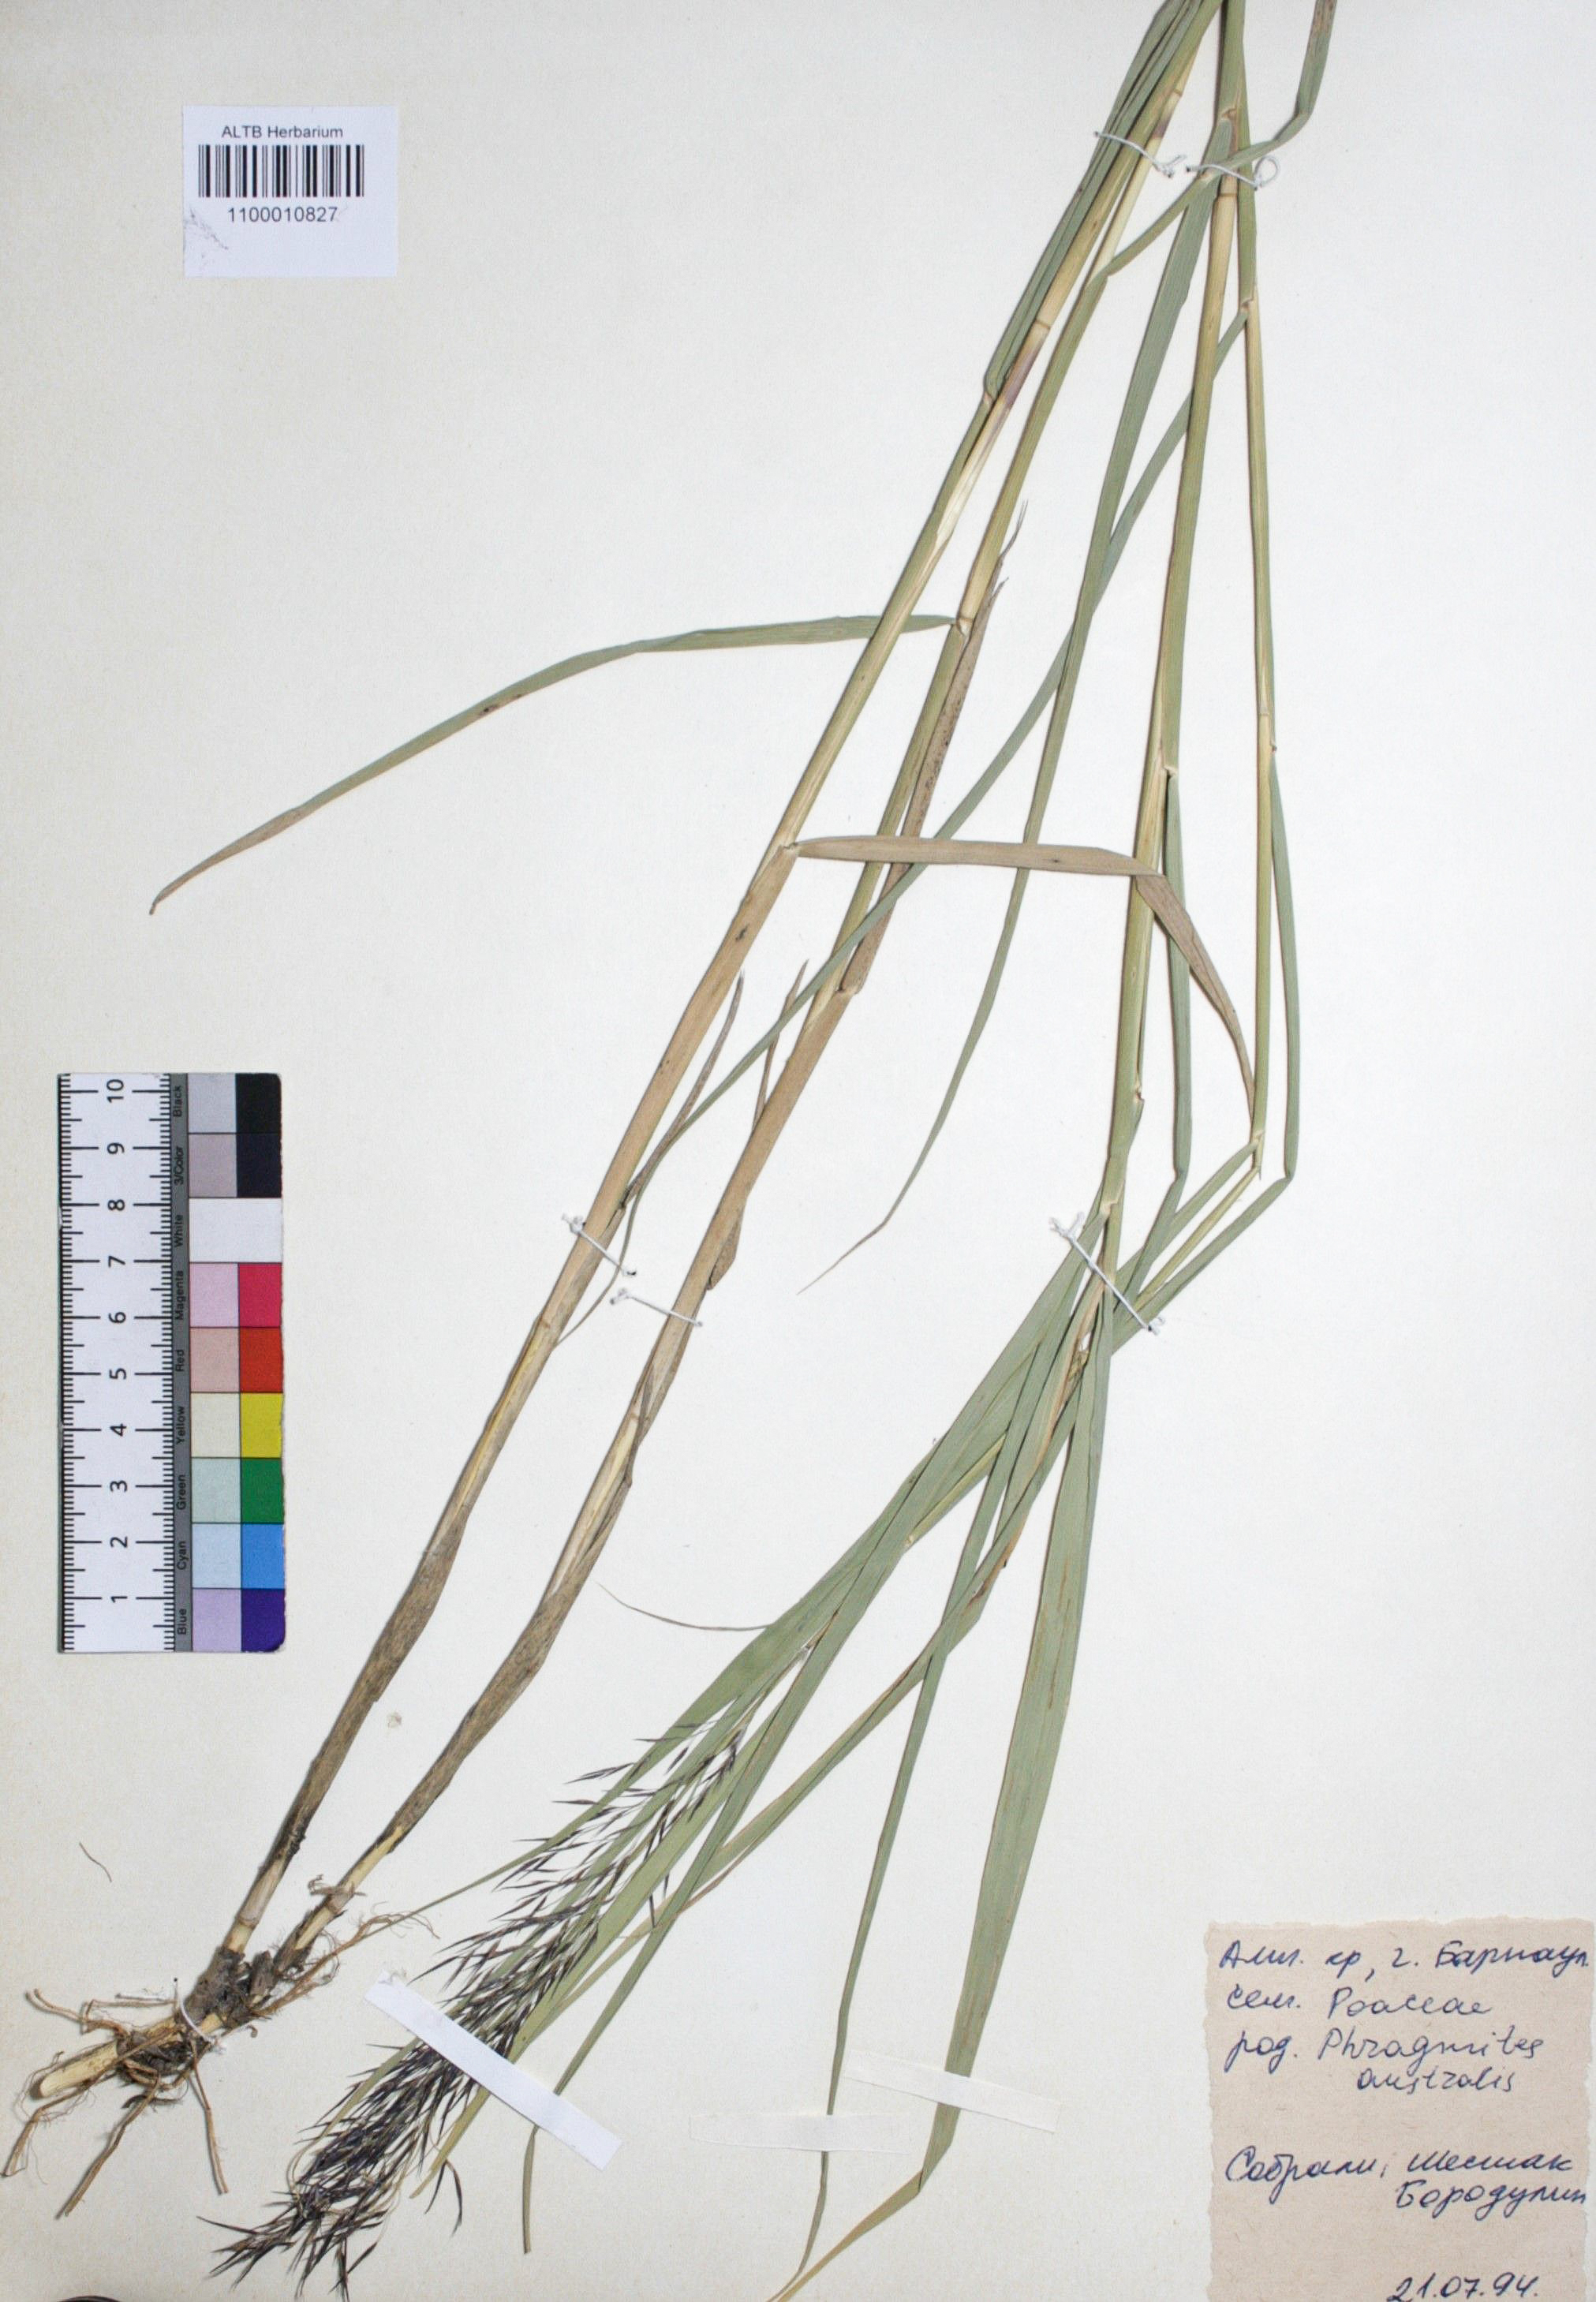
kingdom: Plantae
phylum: Tracheophyta
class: Liliopsida
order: Poales
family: Poaceae
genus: Phragmites
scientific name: Phragmites australis
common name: Common reed
